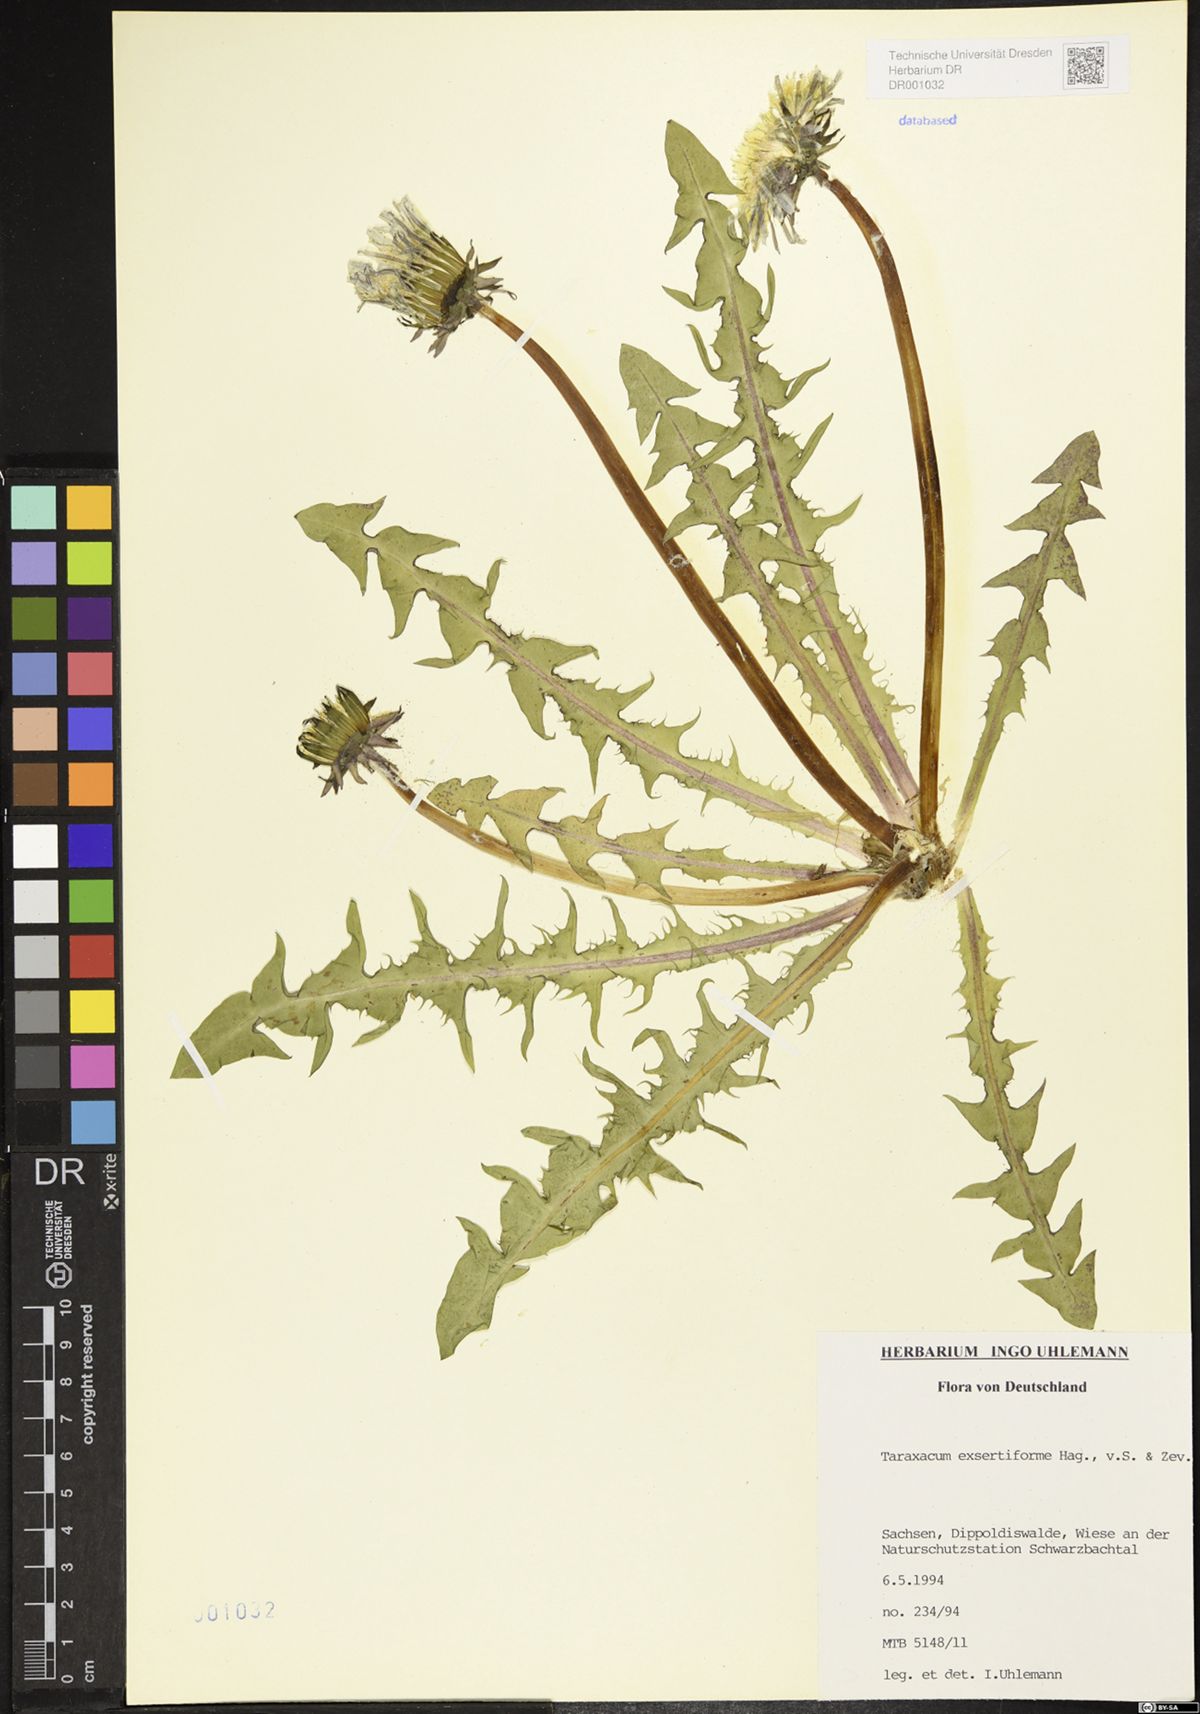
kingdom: Plantae
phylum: Tracheophyta
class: Magnoliopsida
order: Asterales
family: Asteraceae
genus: Taraxacum
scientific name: Taraxacum exsertiforme
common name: Erect-bracted dandelion
